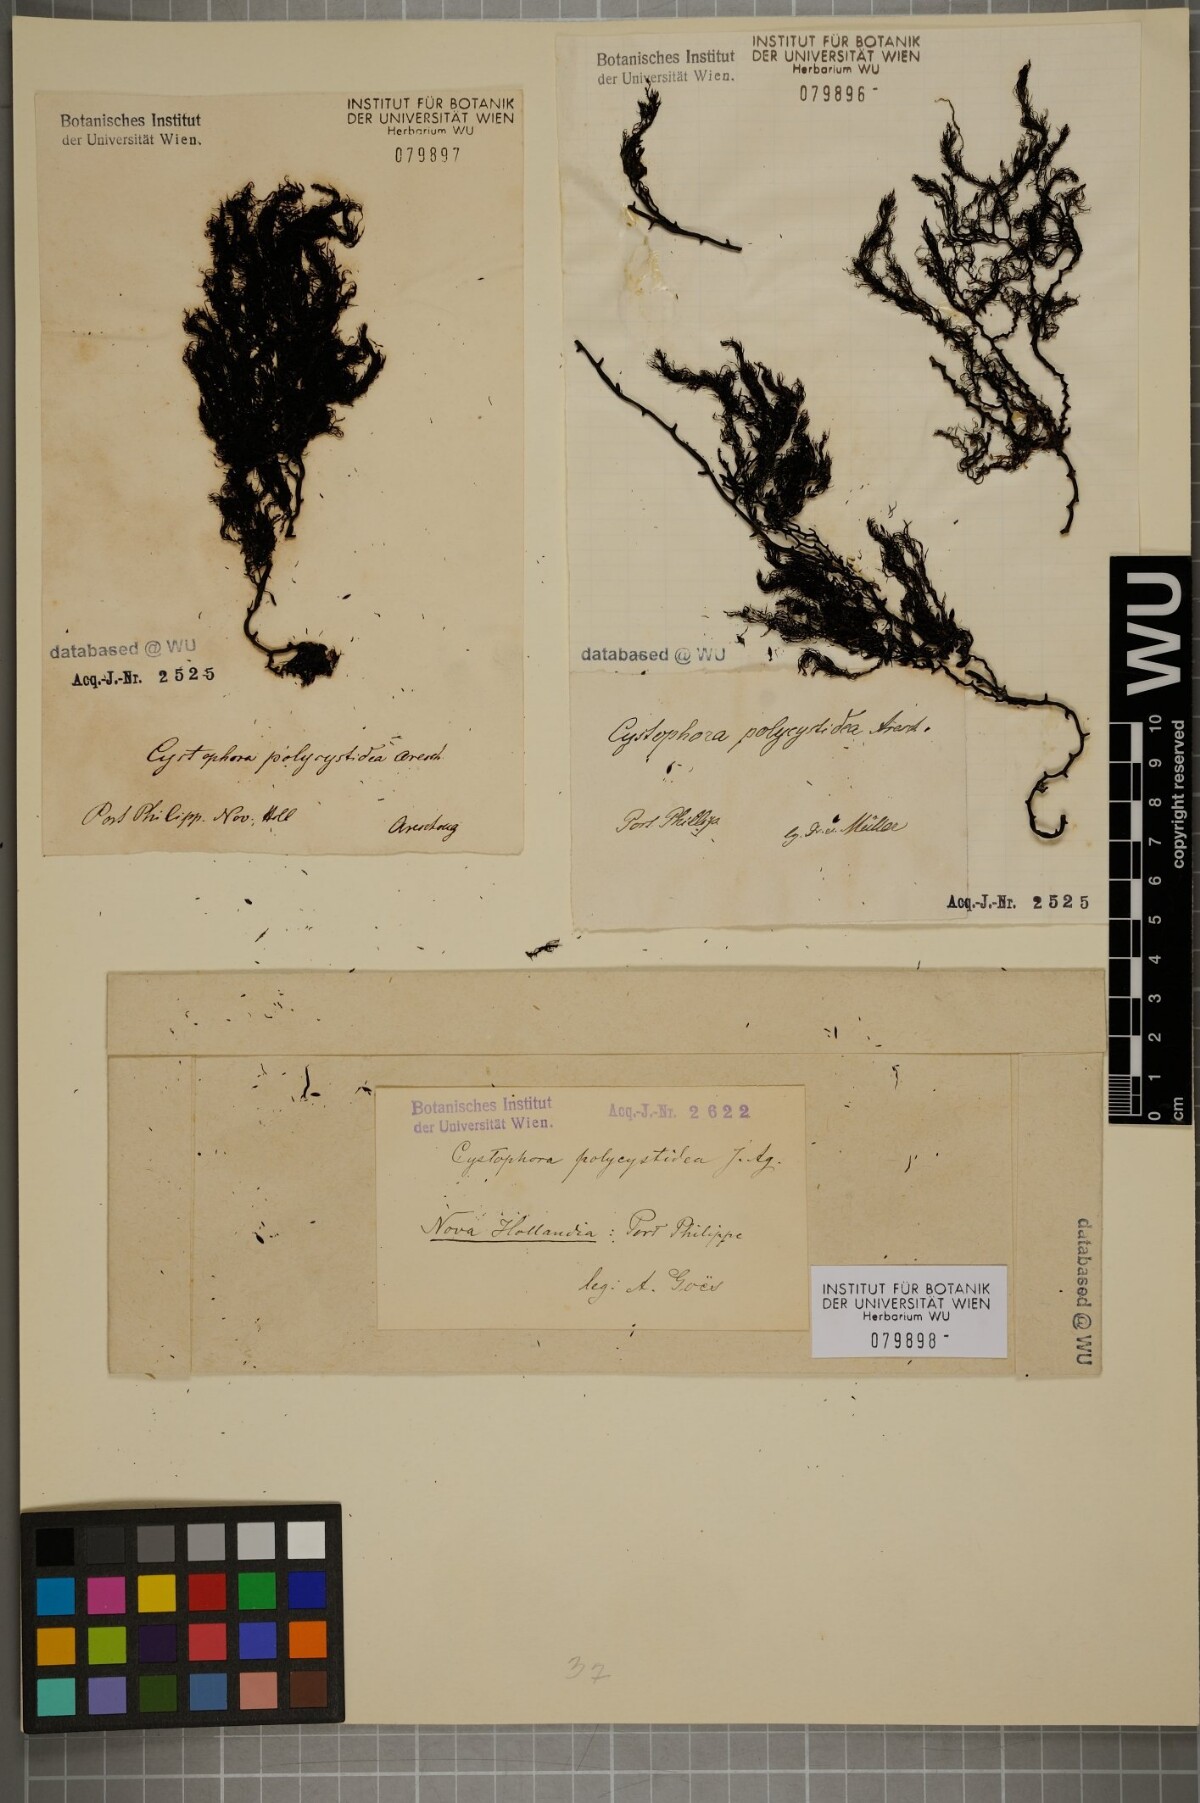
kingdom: Chromista
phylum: Ochrophyta
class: Phaeophyceae
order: Fucales
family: Sargassaceae
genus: Cystophora
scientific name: Cystophora
